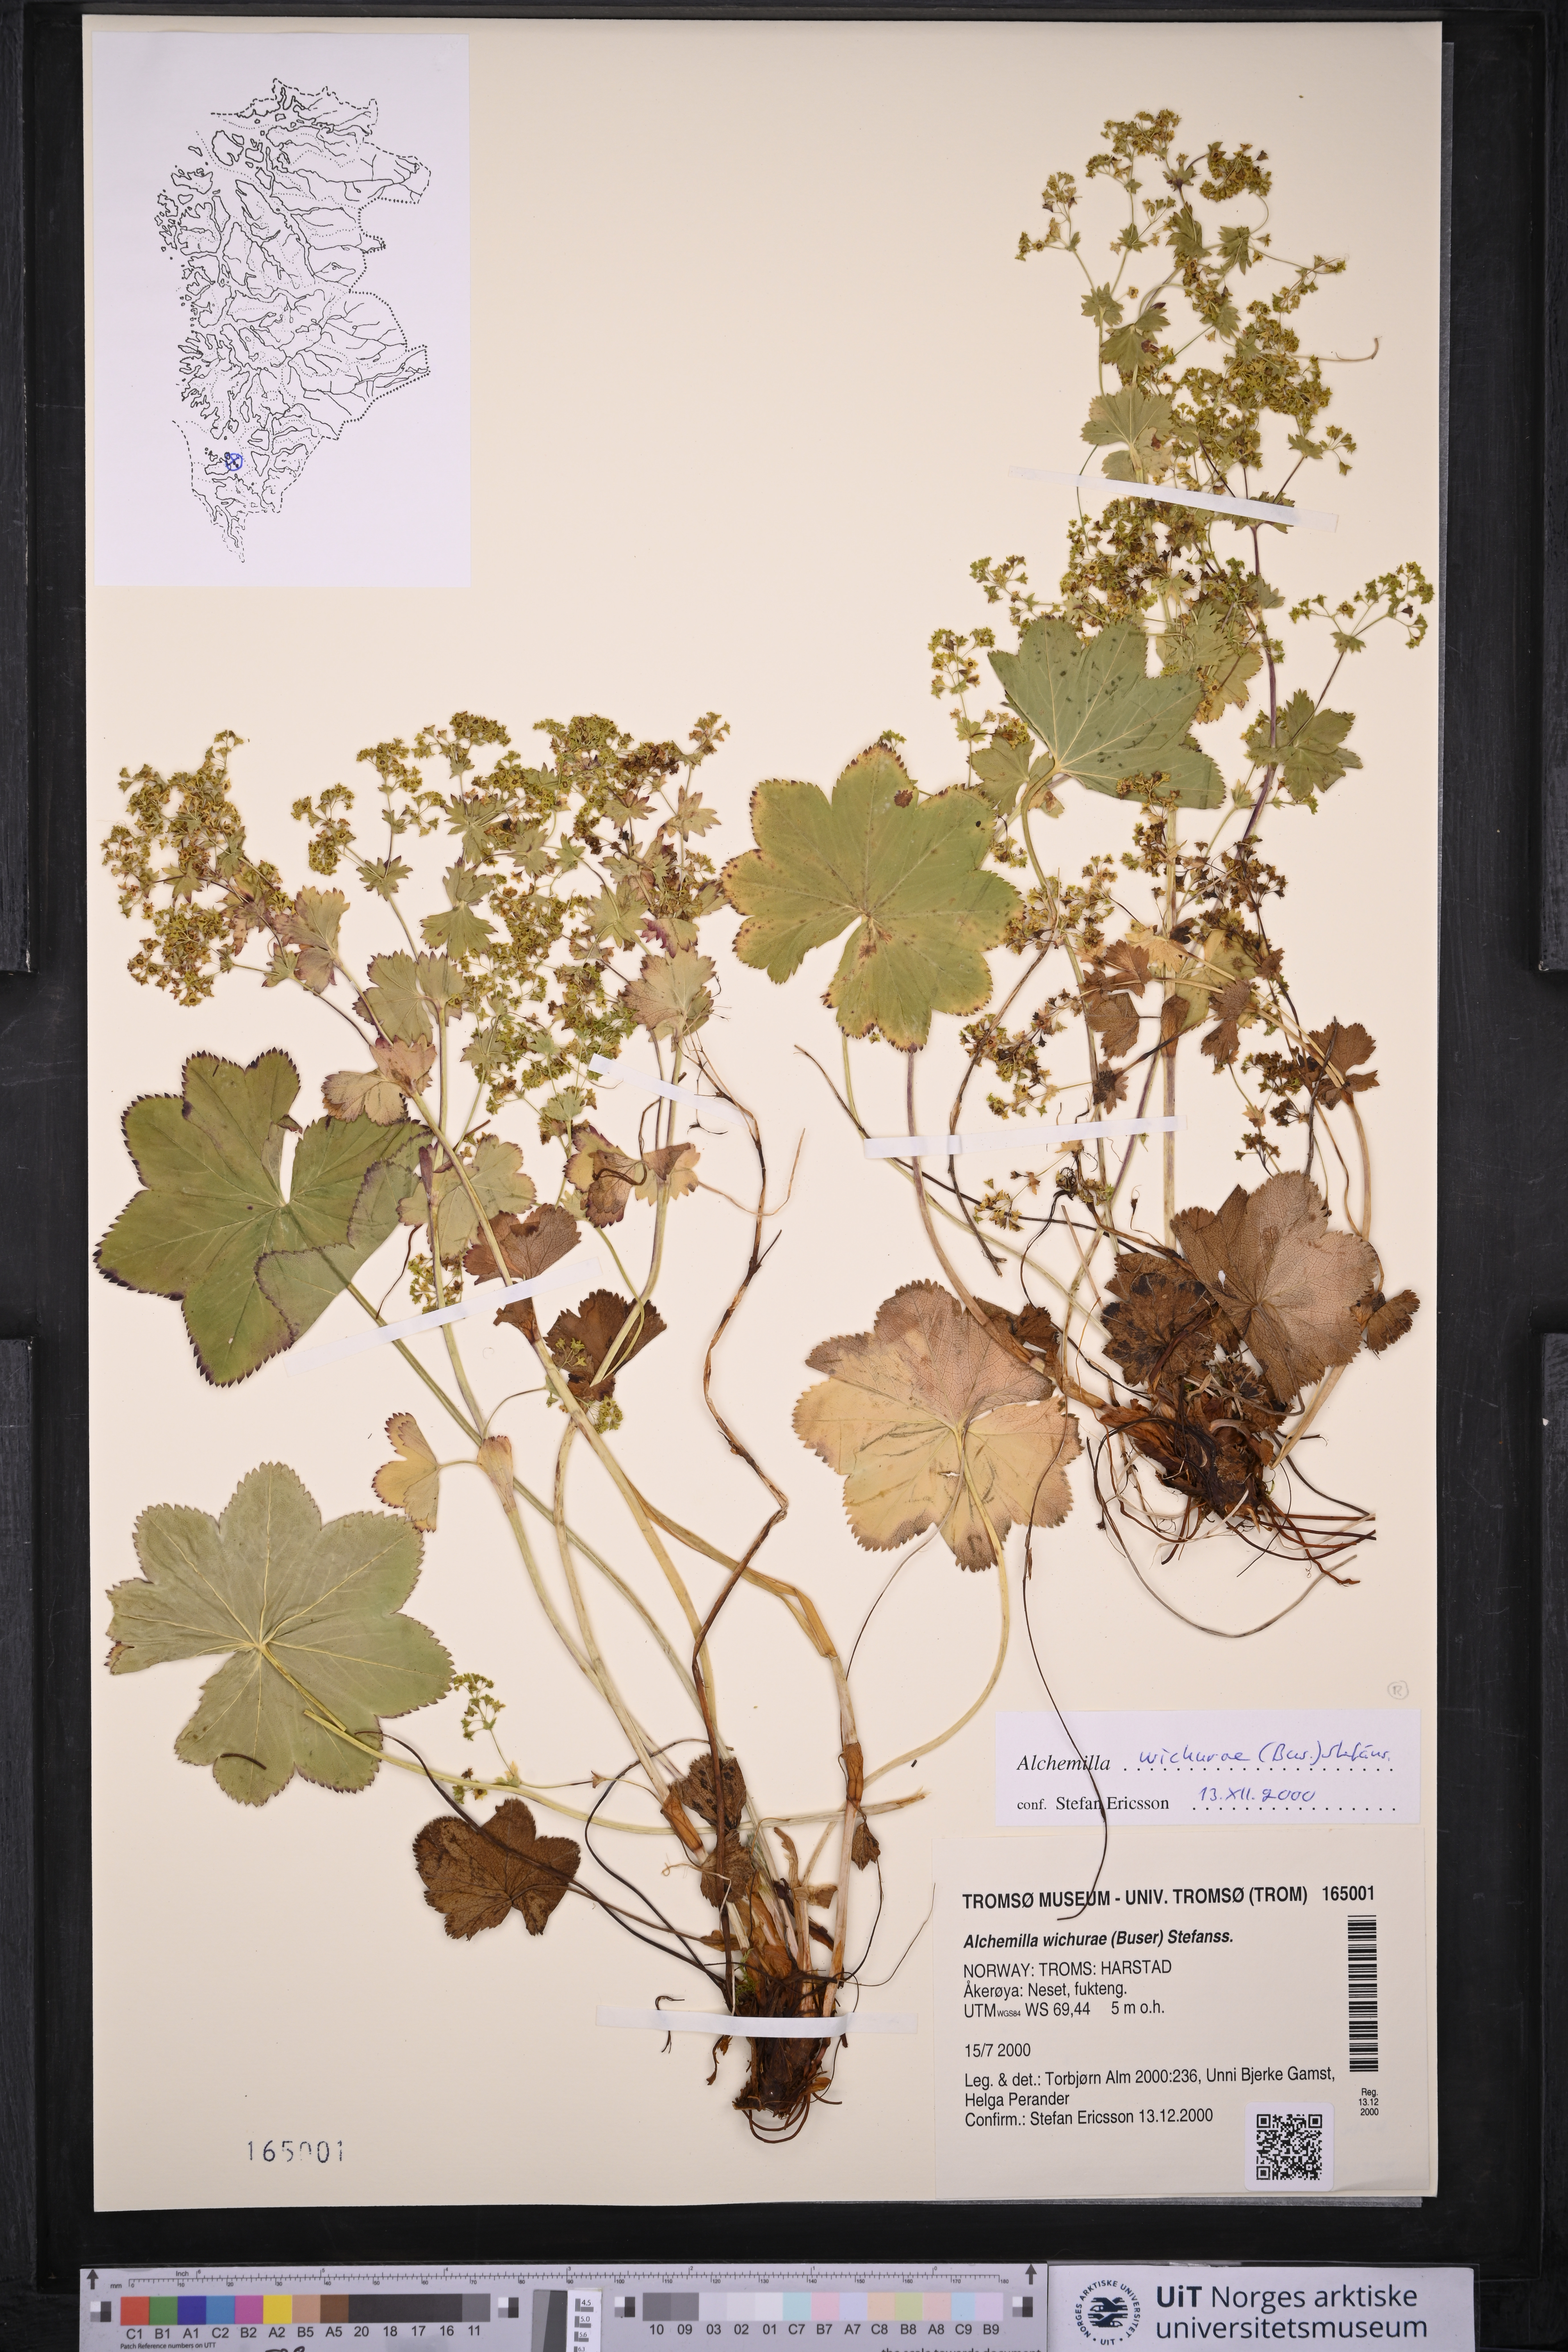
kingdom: Plantae
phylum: Tracheophyta
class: Magnoliopsida
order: Rosales
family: Rosaceae
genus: Alchemilla
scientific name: Alchemilla wichurae
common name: Rock lady's mantle
